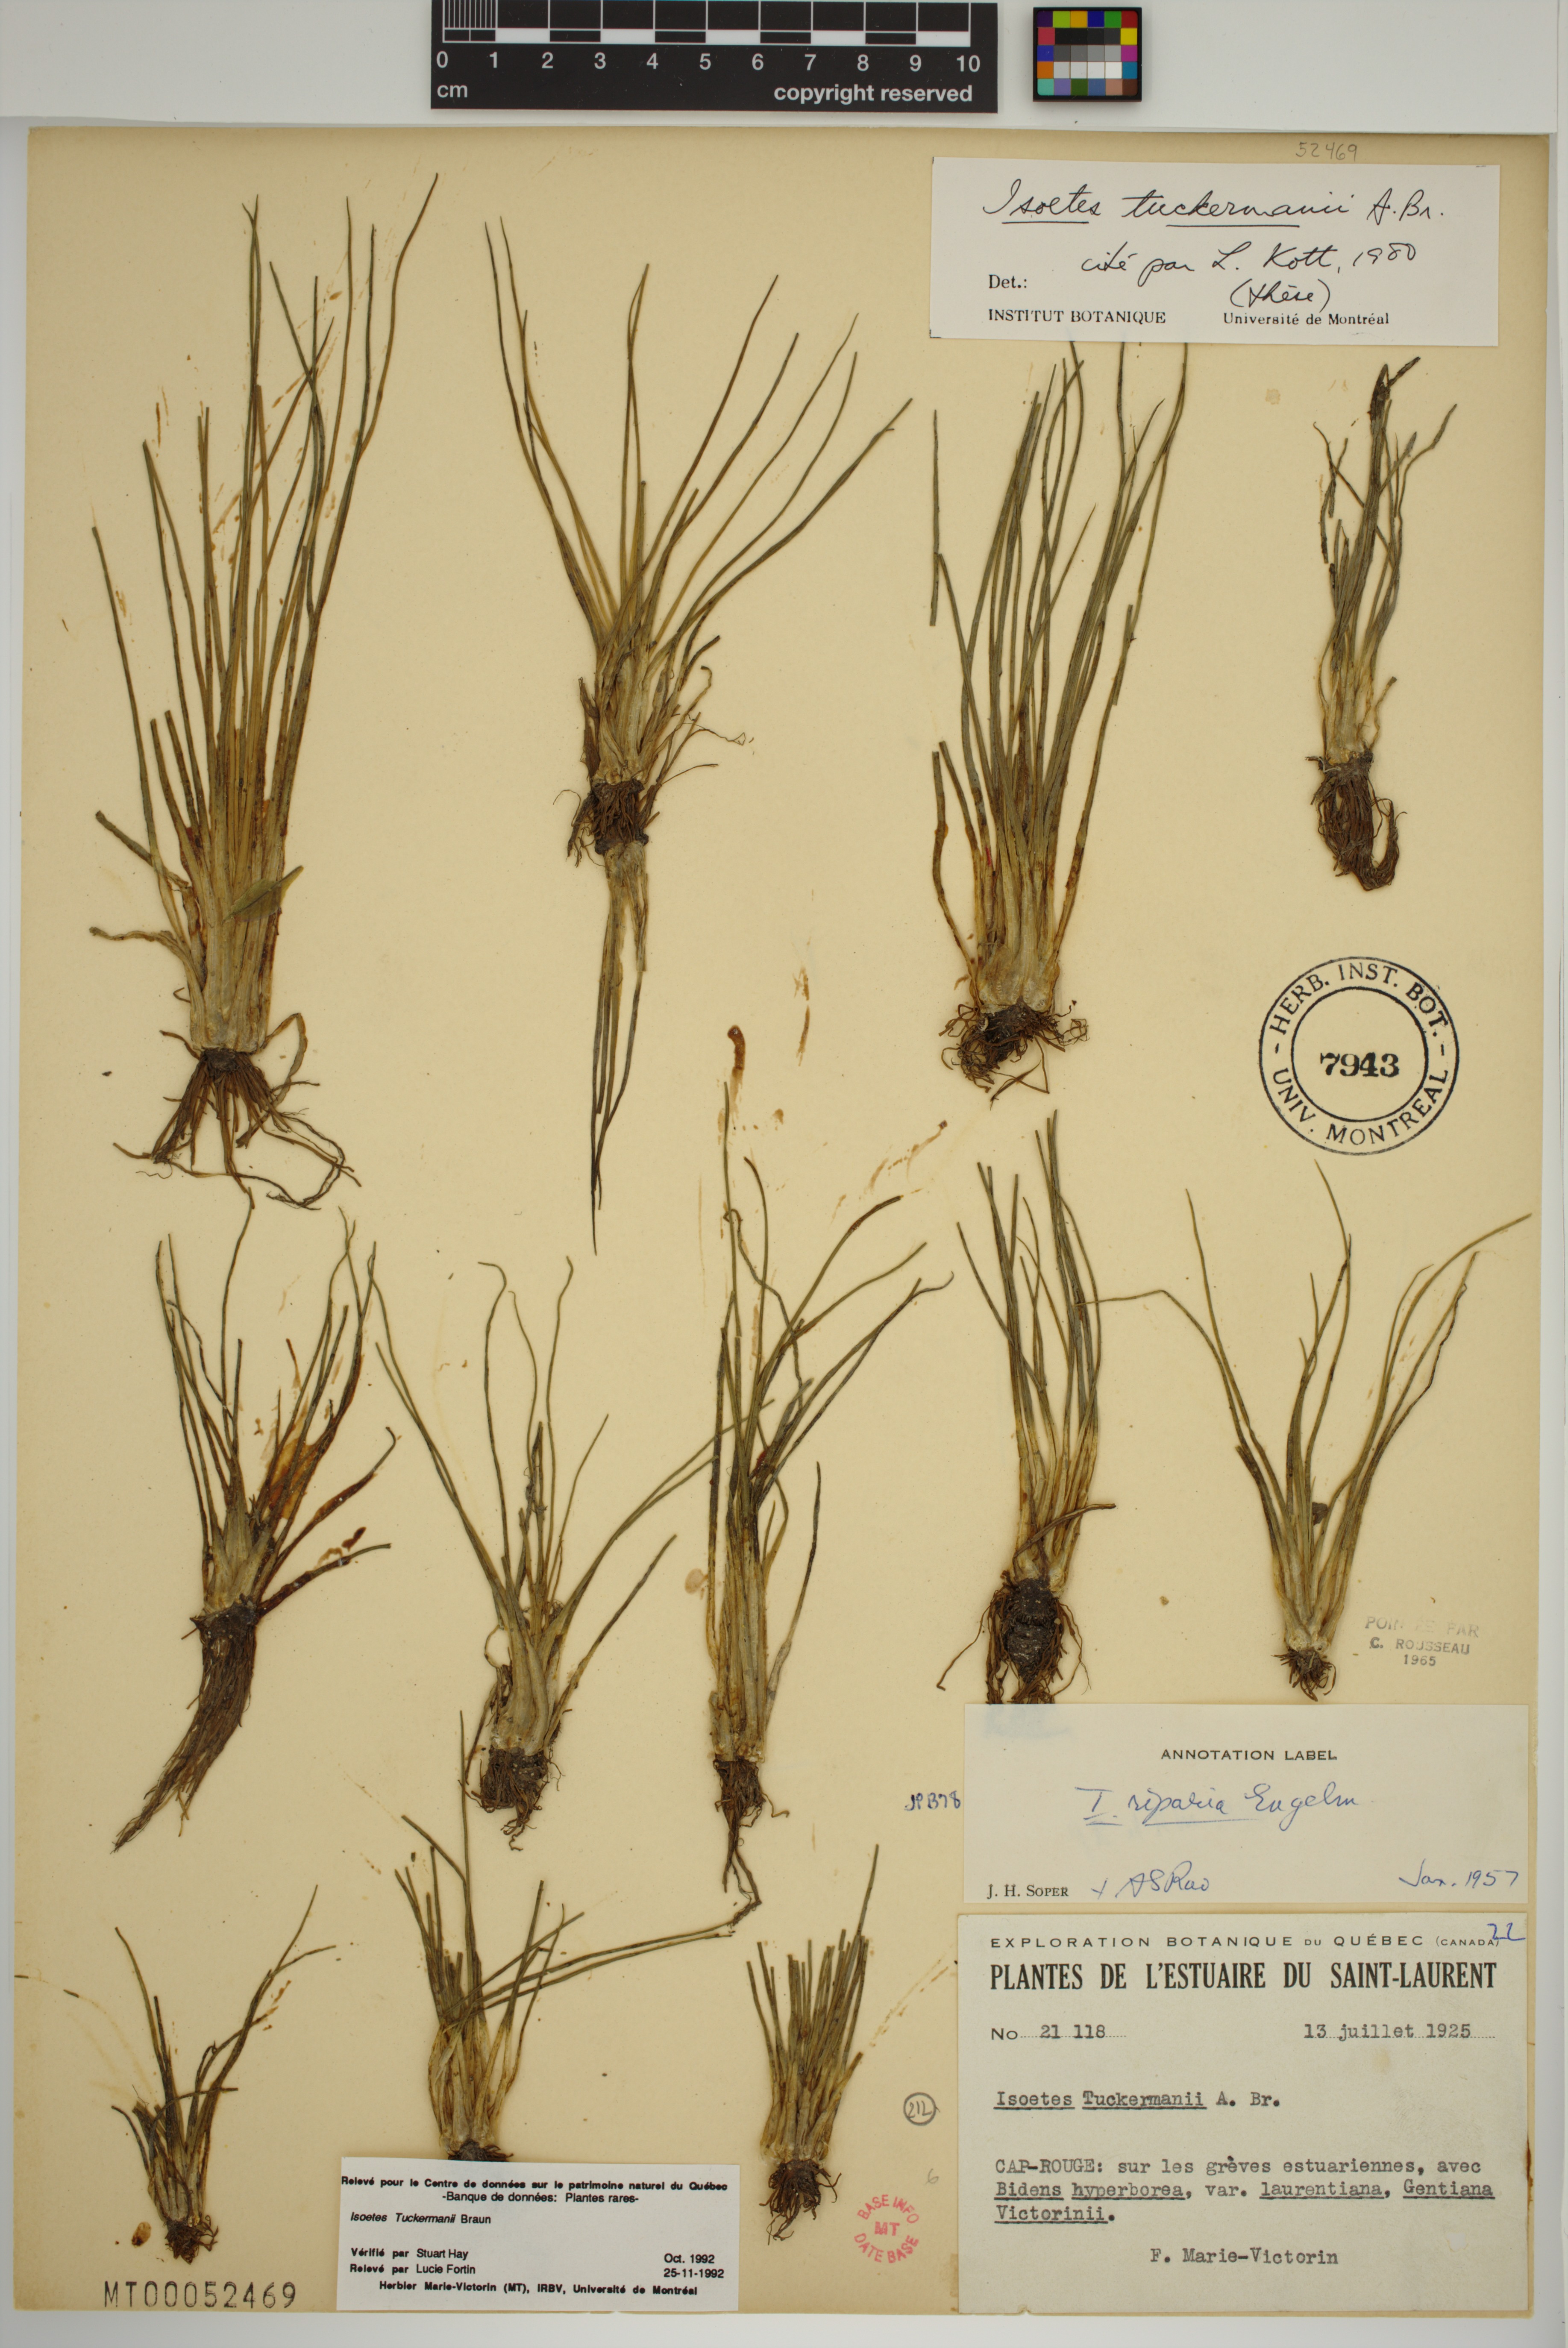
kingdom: Plantae
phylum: Tracheophyta
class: Lycopodiopsida
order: Isoetales
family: Isoetaceae
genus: Isoetes
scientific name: Isoetes laurentiana
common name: St. lawrence quillwort
